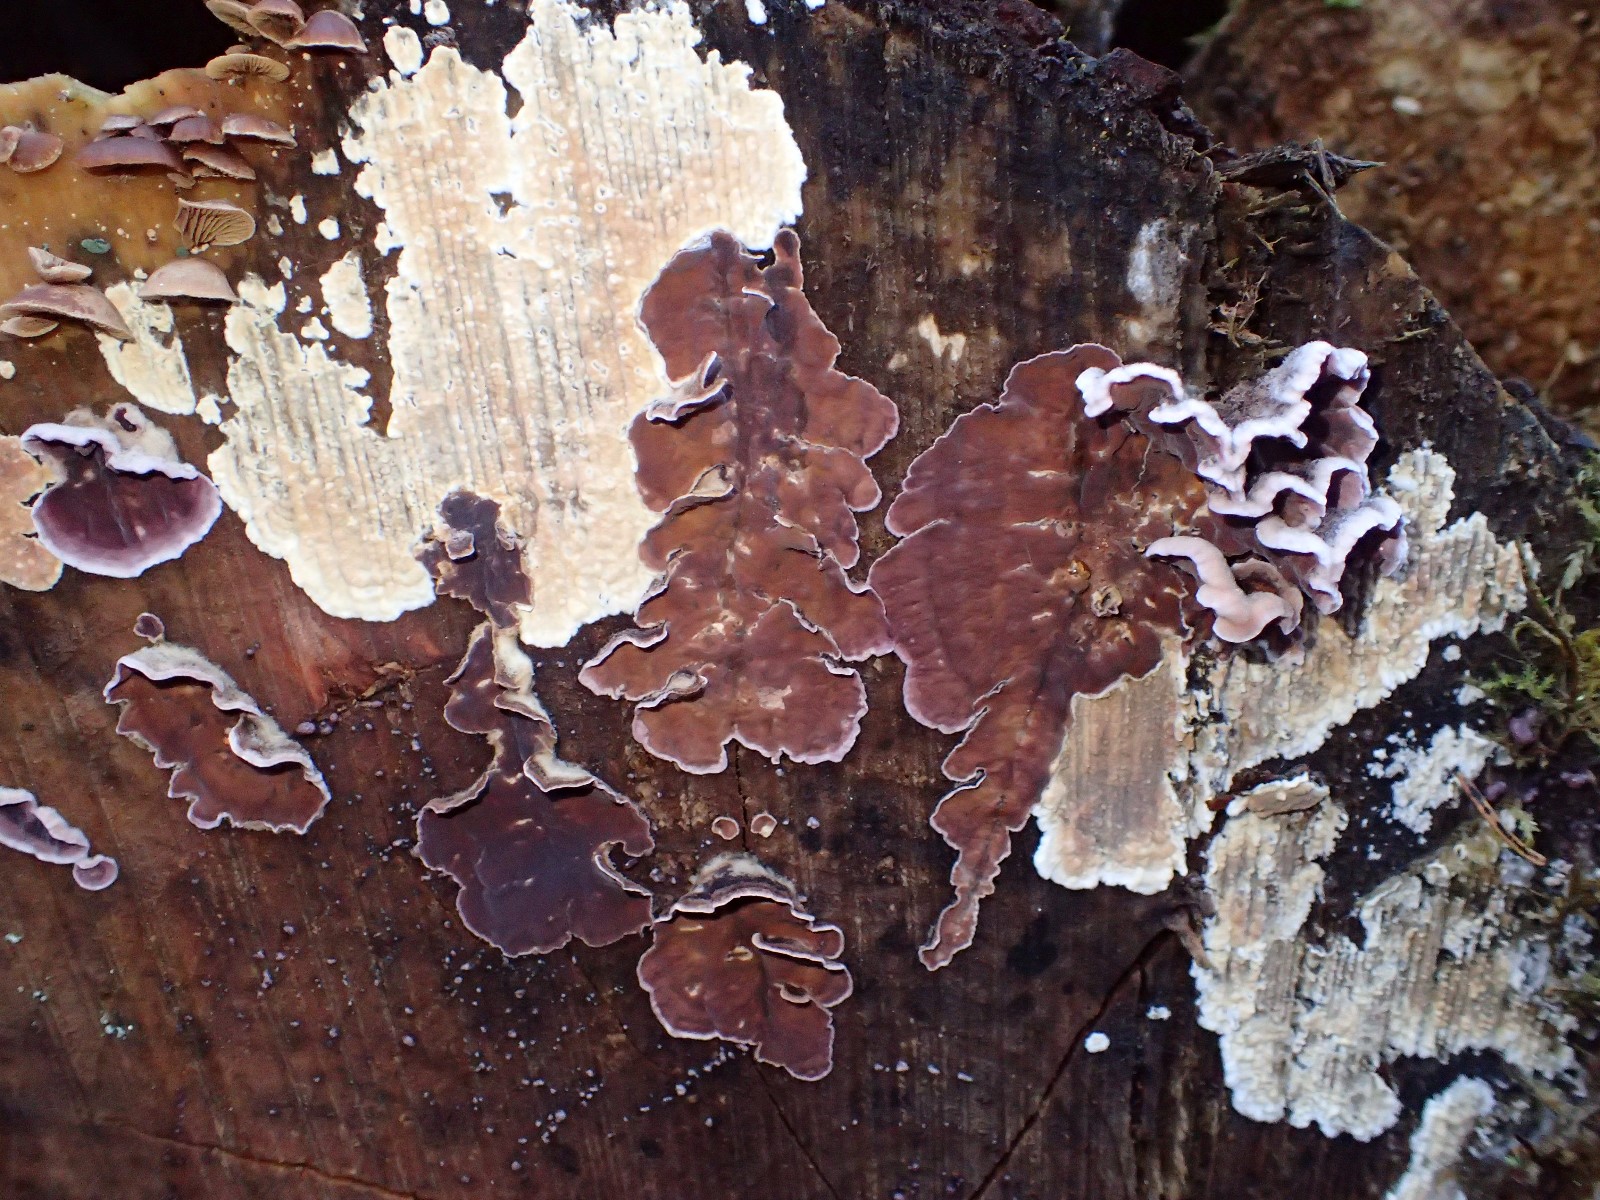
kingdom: Fungi
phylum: Basidiomycota
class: Agaricomycetes
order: Agaricales
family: Cyphellaceae
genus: Chondrostereum
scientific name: Chondrostereum purpureum
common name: purpurlædersvamp
